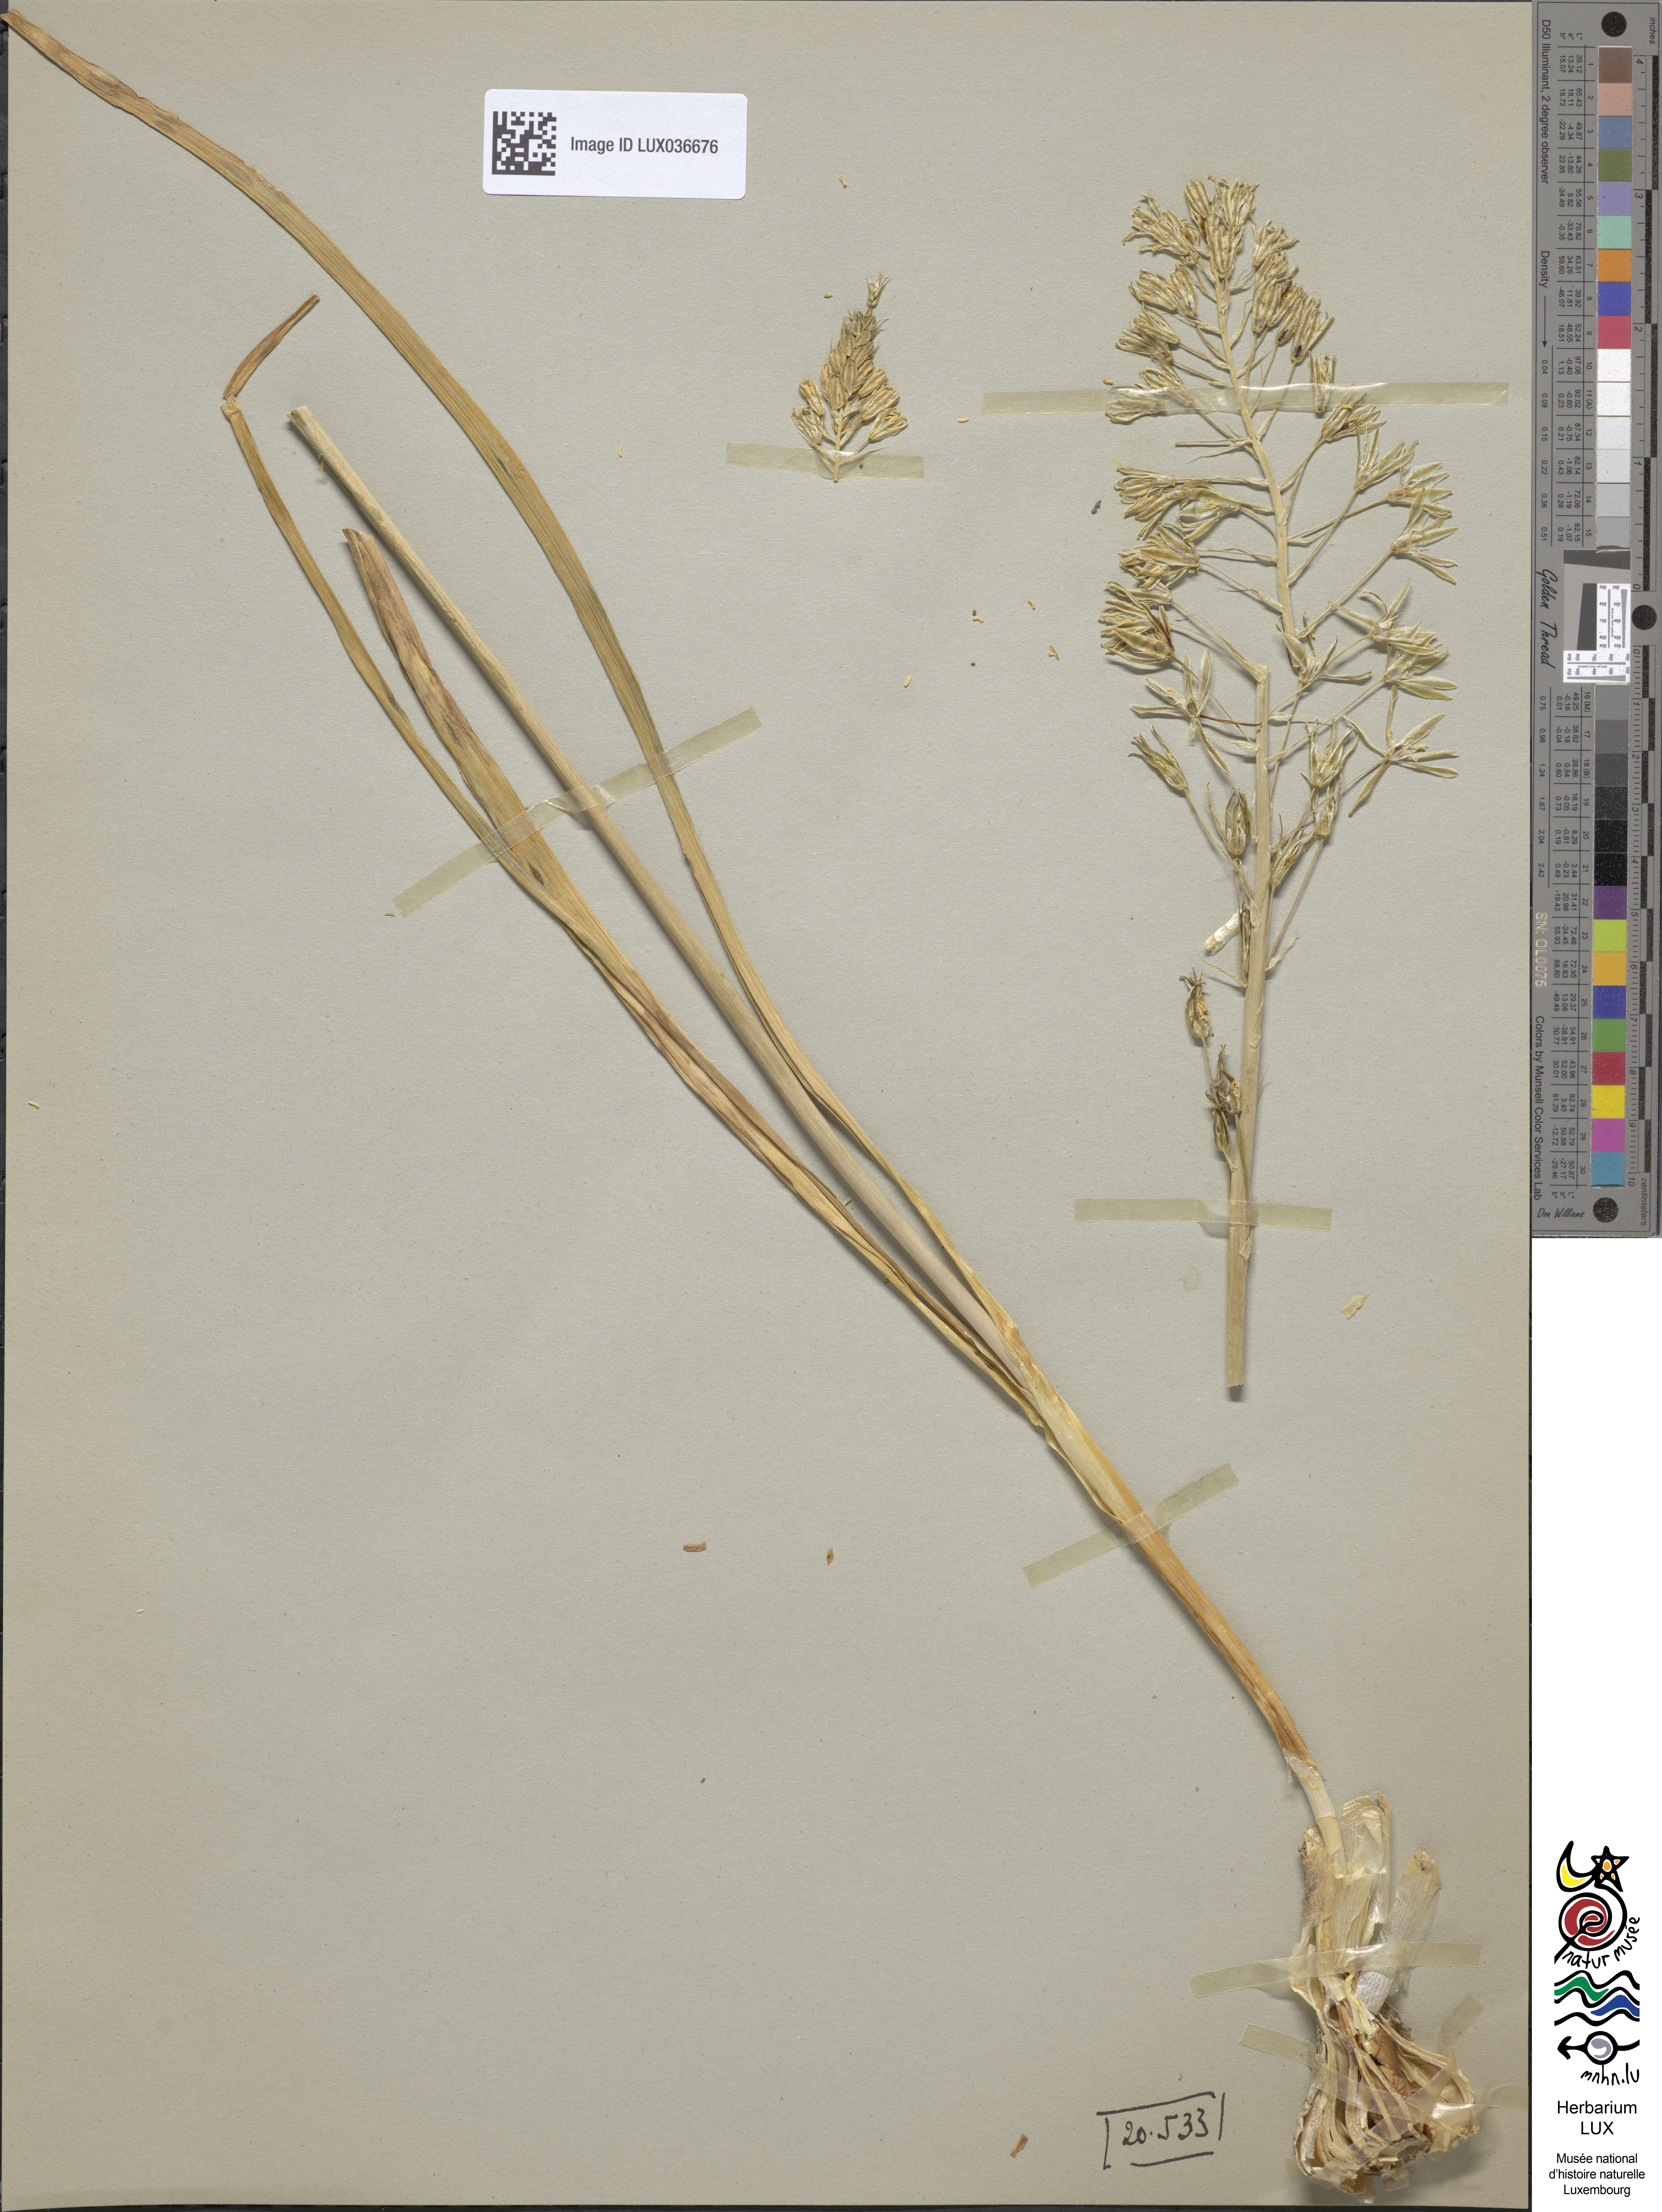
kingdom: Plantae
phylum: Tracheophyta
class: Liliopsida
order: Asparagales
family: Asparagaceae
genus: Ornithogalum
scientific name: Ornithogalum narbonense
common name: Bath-asparagus
